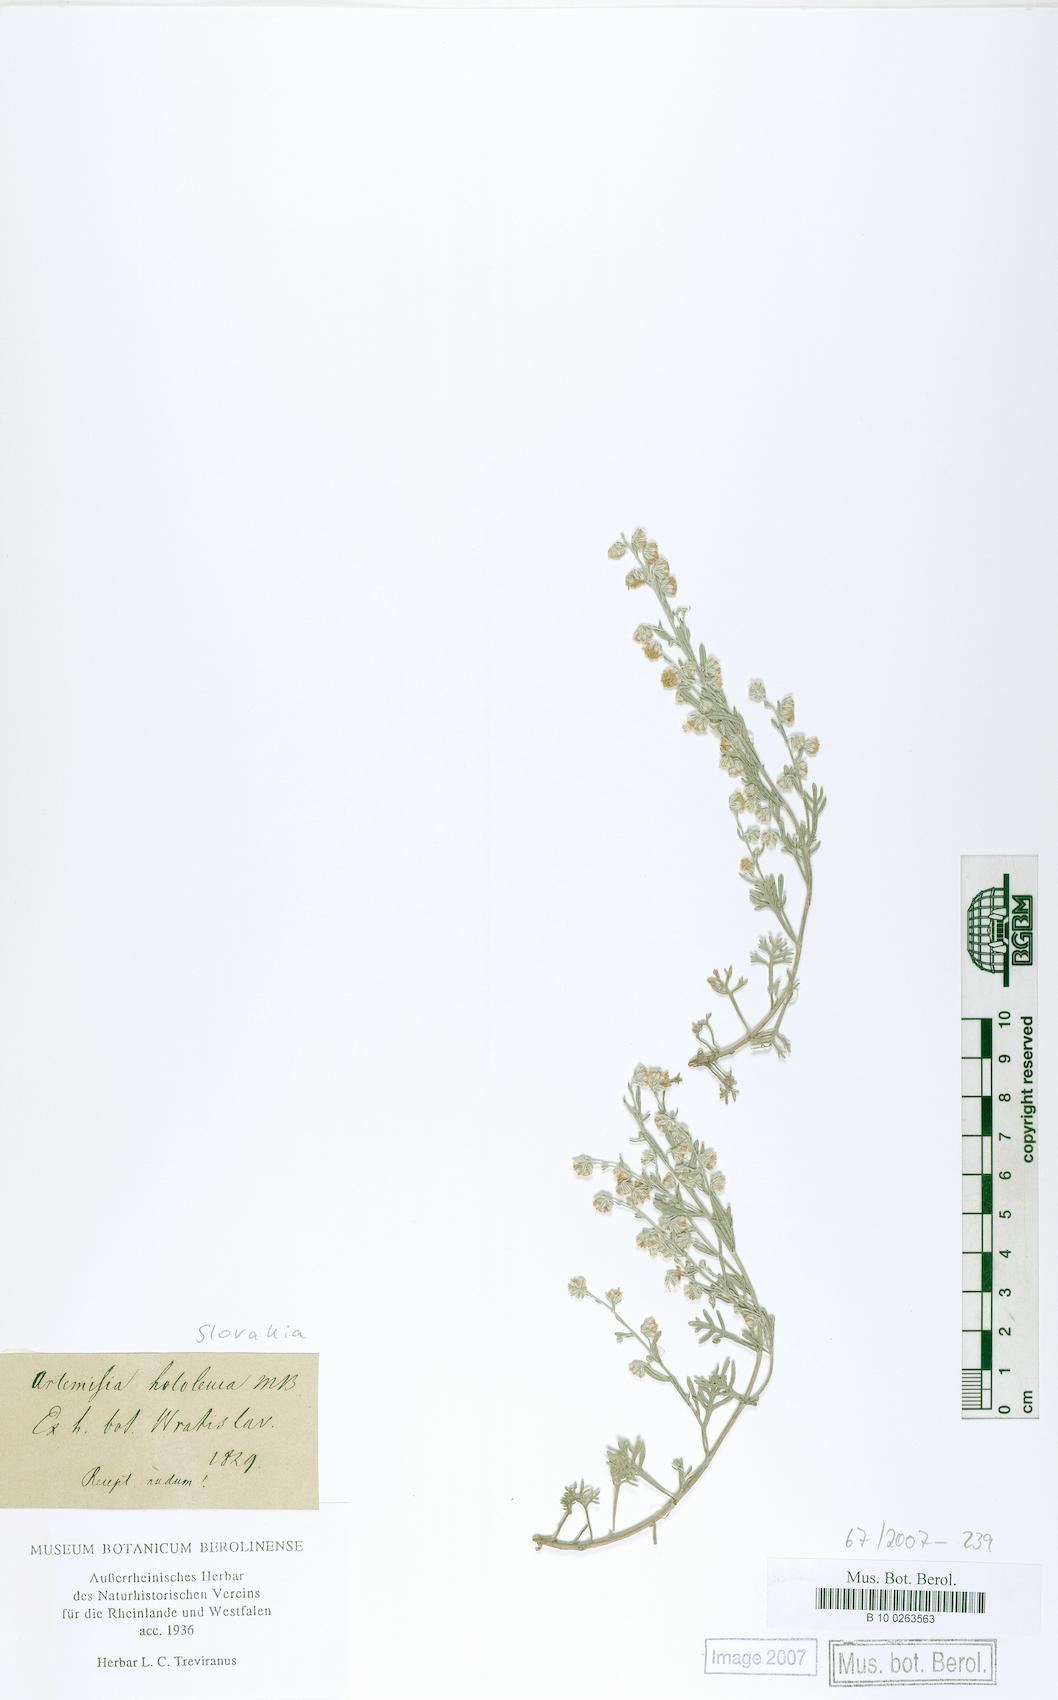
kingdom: Plantae
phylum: Tracheophyta
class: Magnoliopsida
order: Asterales
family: Asteraceae
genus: Artemisia
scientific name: Artemisia hololeuca
